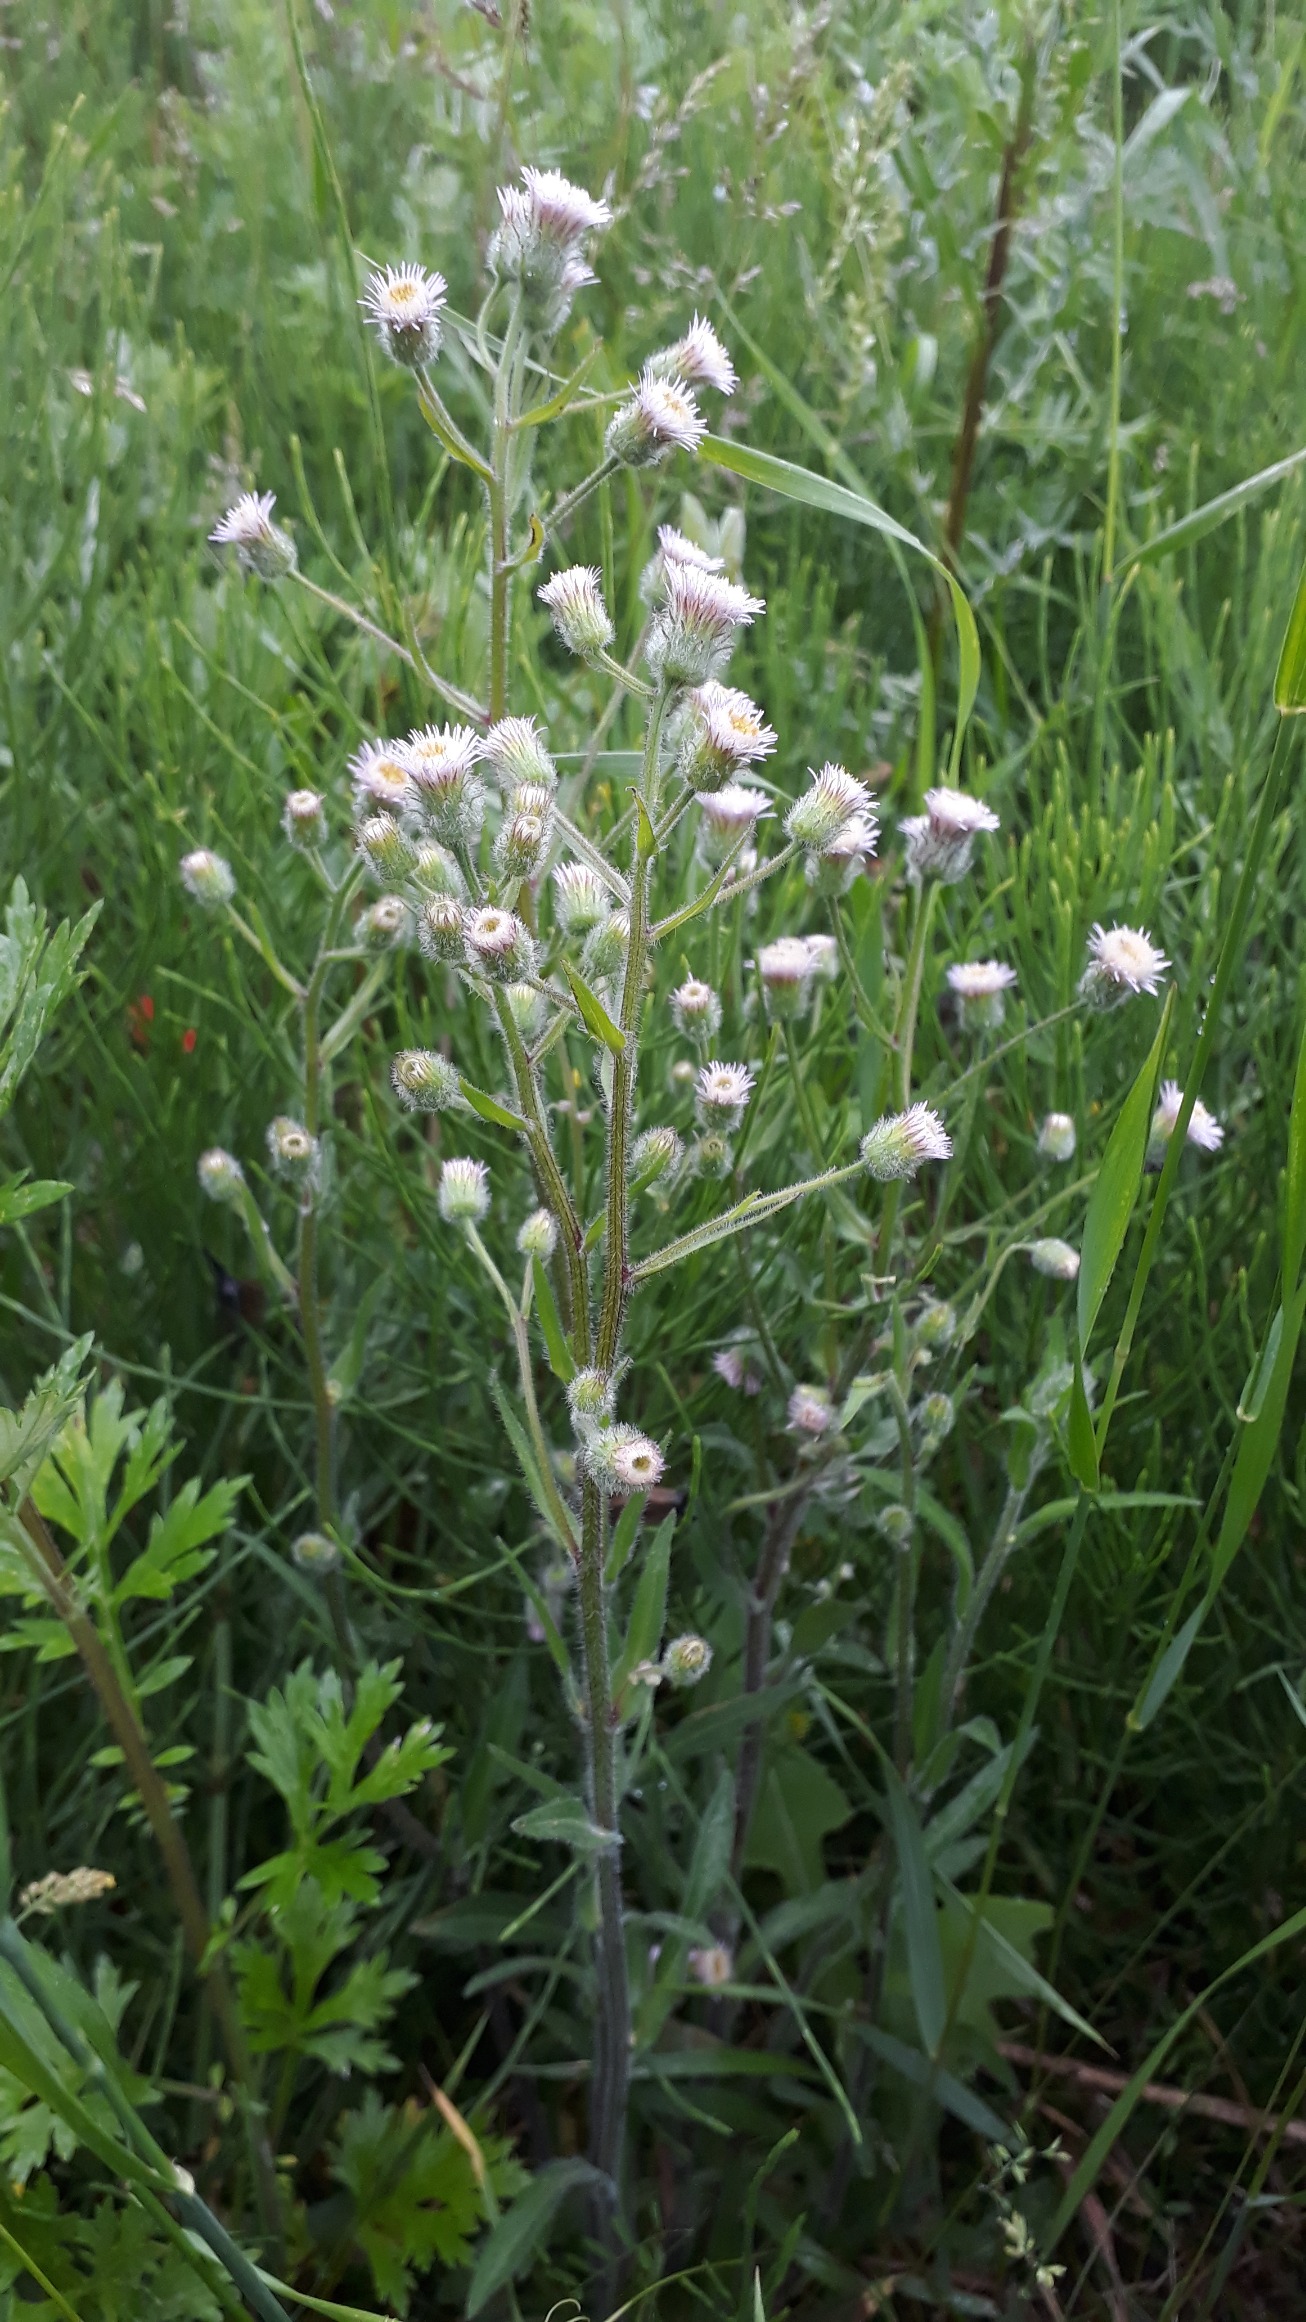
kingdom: Plantae
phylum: Tracheophyta
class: Magnoliopsida
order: Asterales
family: Asteraceae
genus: Erigeron
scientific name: Erigeron acris
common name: Bitter bakkestjerne
